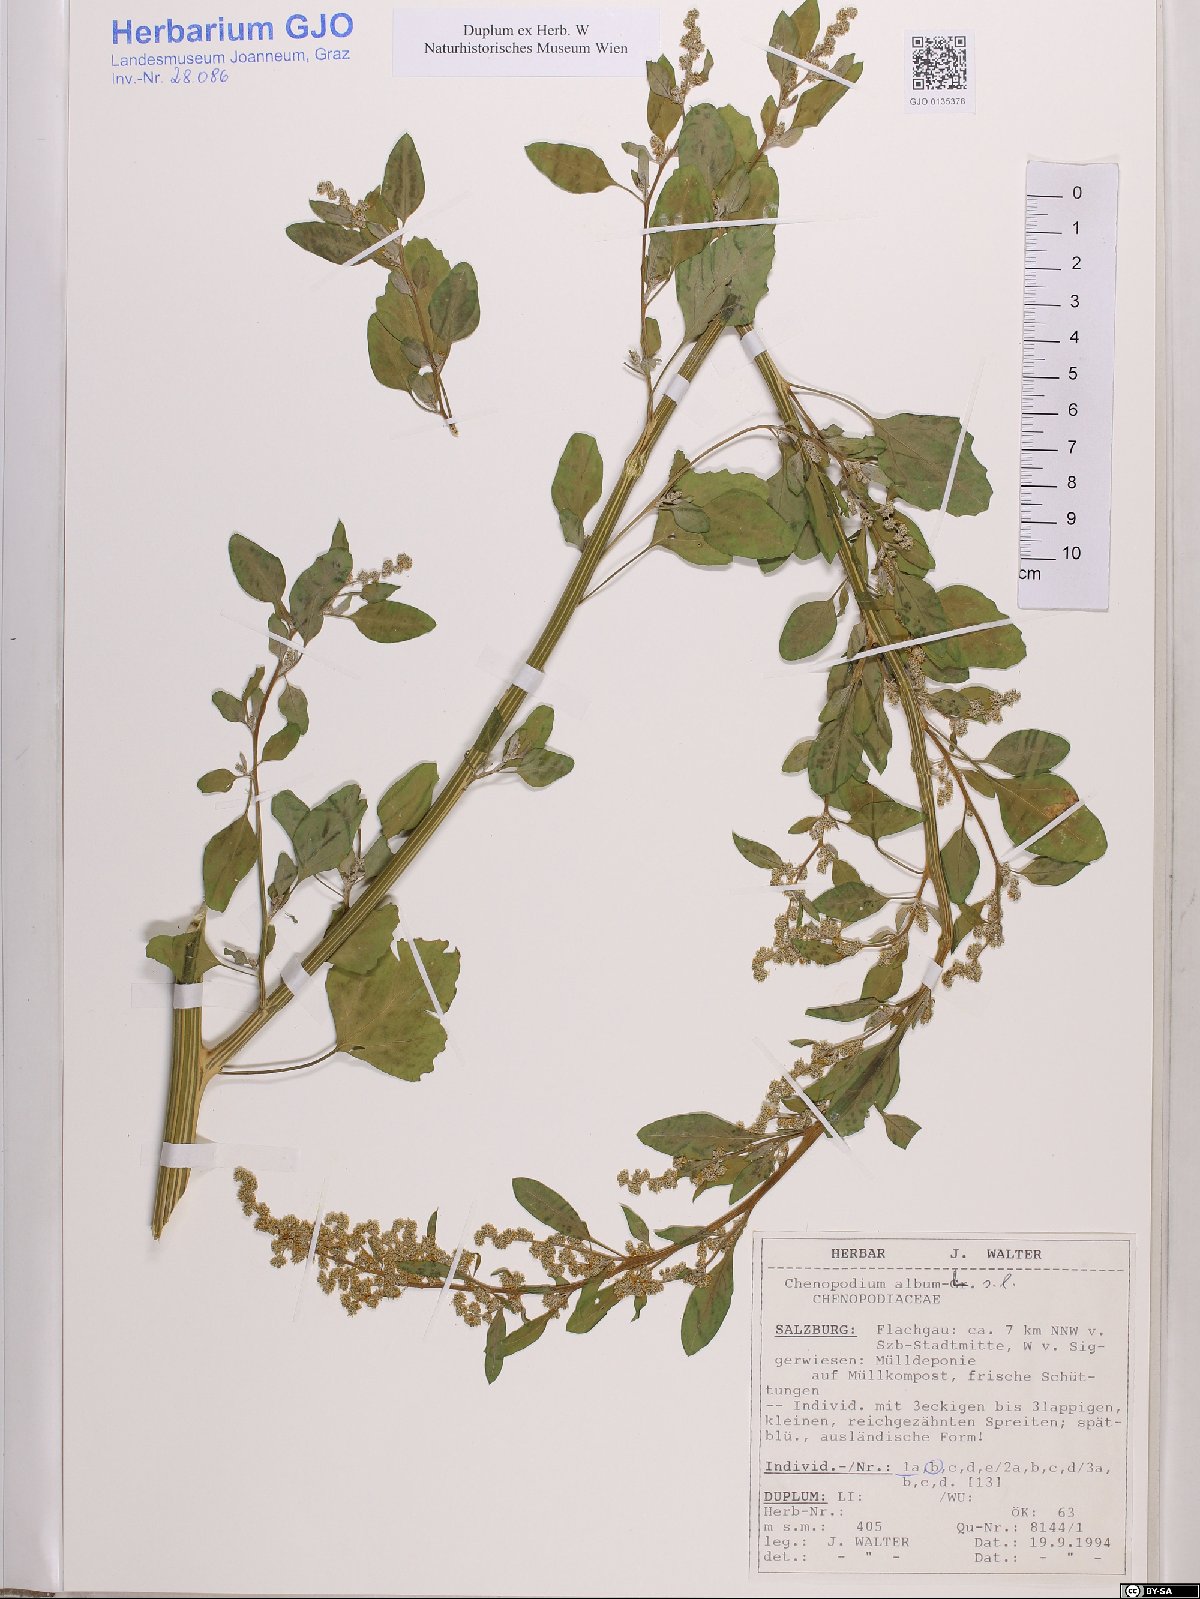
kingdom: Plantae
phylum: Tracheophyta
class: Magnoliopsida
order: Caryophyllales
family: Amaranthaceae
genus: Chenopodium
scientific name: Chenopodium album
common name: Fat-hen
